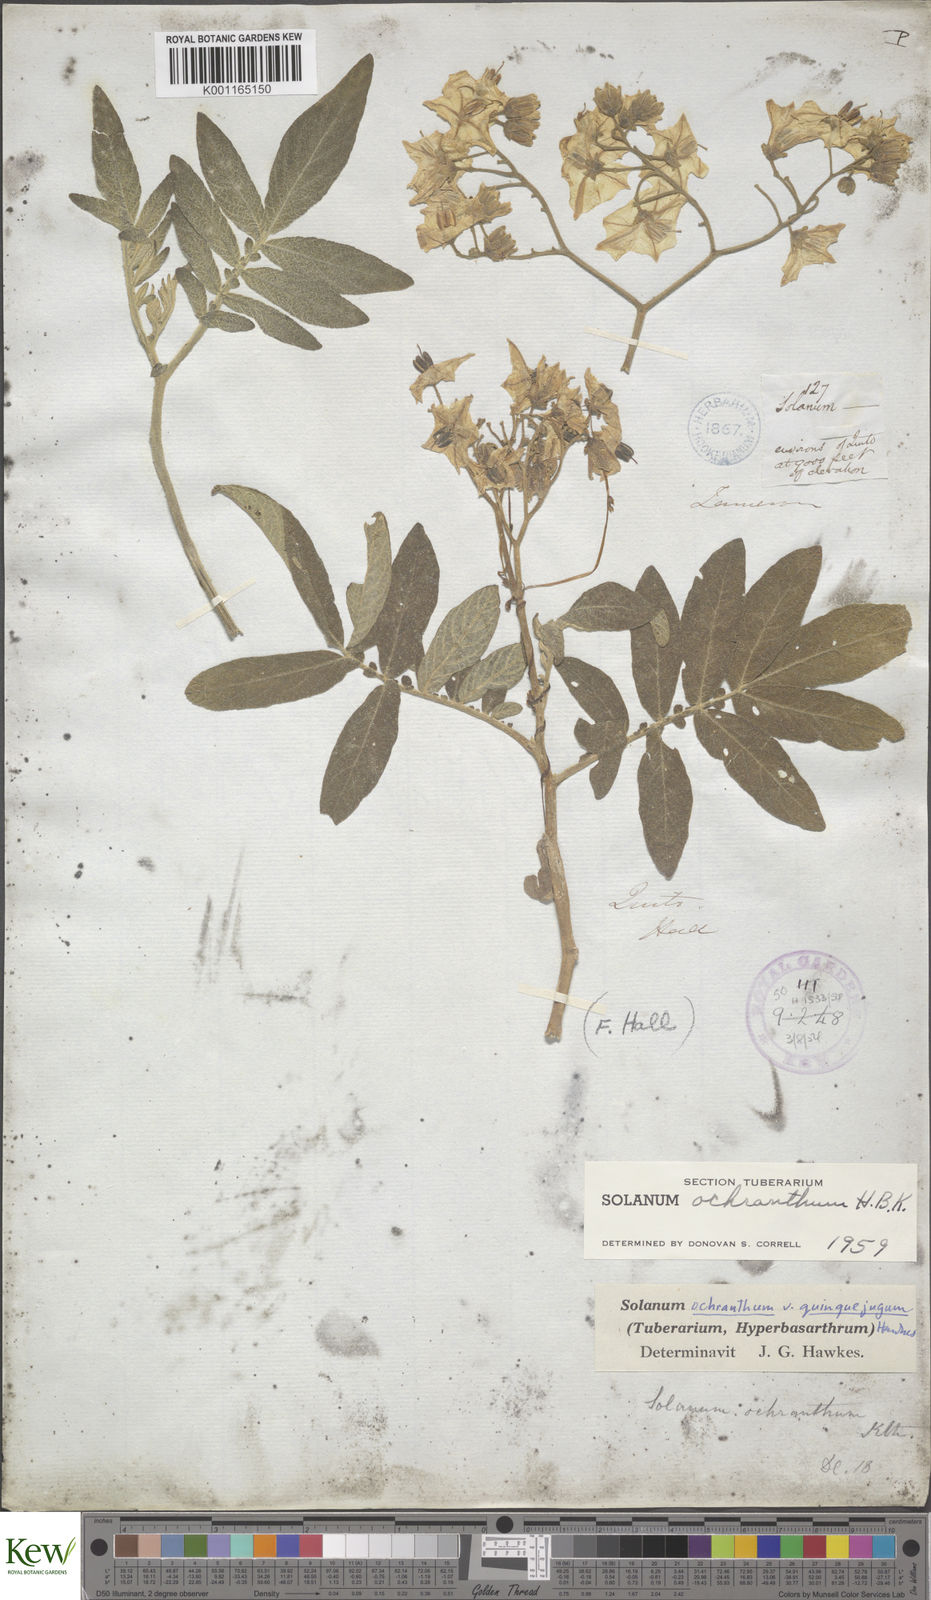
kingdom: Plantae
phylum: Tracheophyta
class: Magnoliopsida
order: Solanales
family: Solanaceae
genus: Solanum
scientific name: Solanum ochranthum
